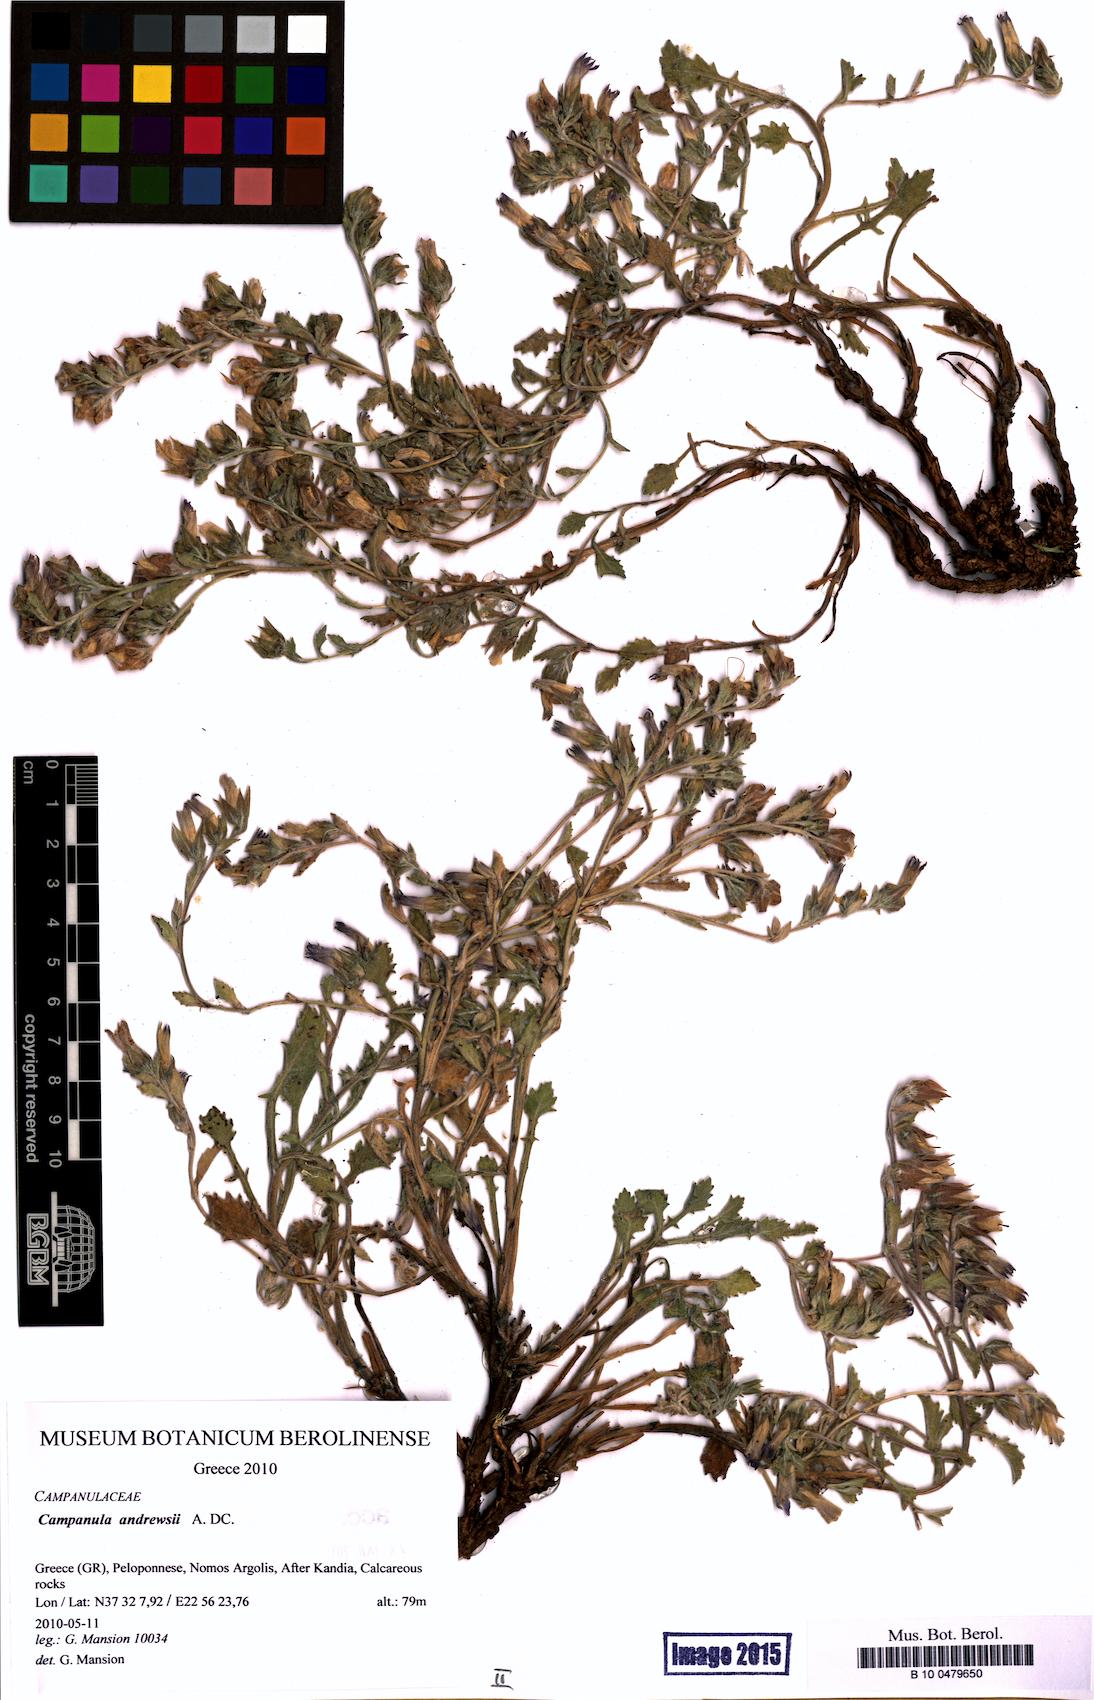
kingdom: Plantae
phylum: Tracheophyta
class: Magnoliopsida
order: Asterales
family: Campanulaceae
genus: Campanula
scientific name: Campanula andrewsii
